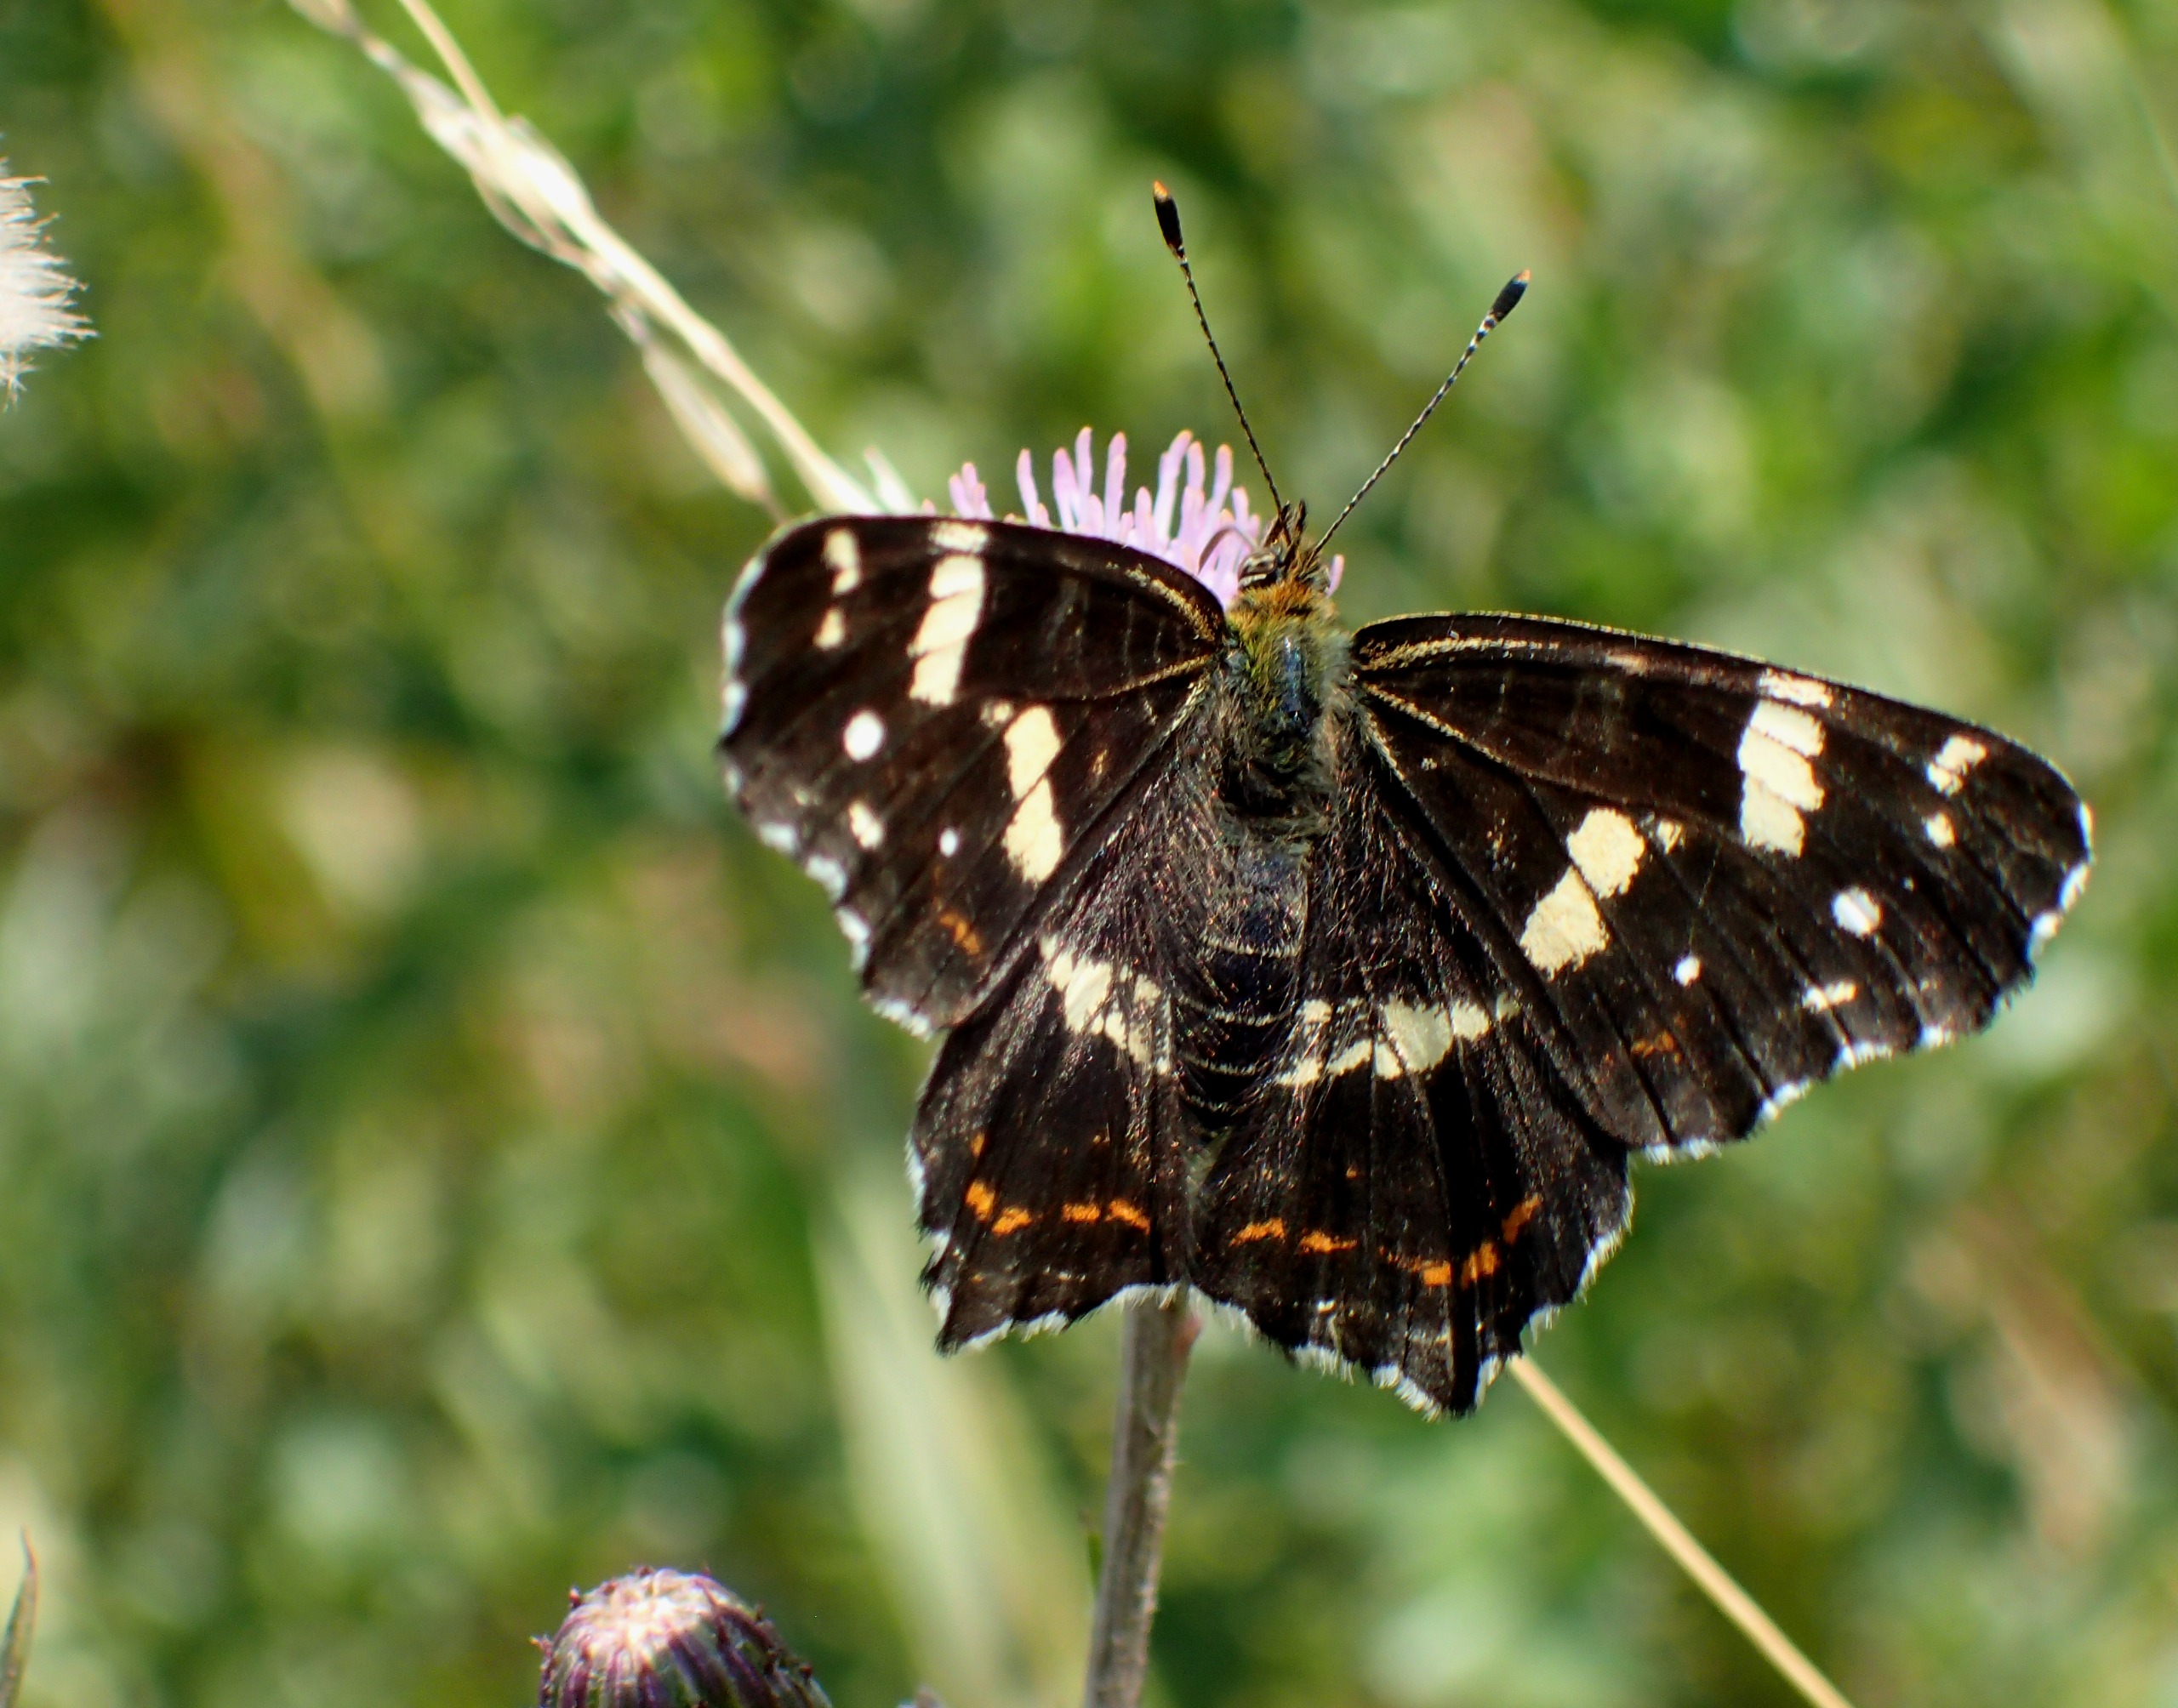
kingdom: Animalia
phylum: Arthropoda
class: Insecta
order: Lepidoptera
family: Nymphalidae
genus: Araschnia
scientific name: Araschnia levana
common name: Nældesommerfugl
